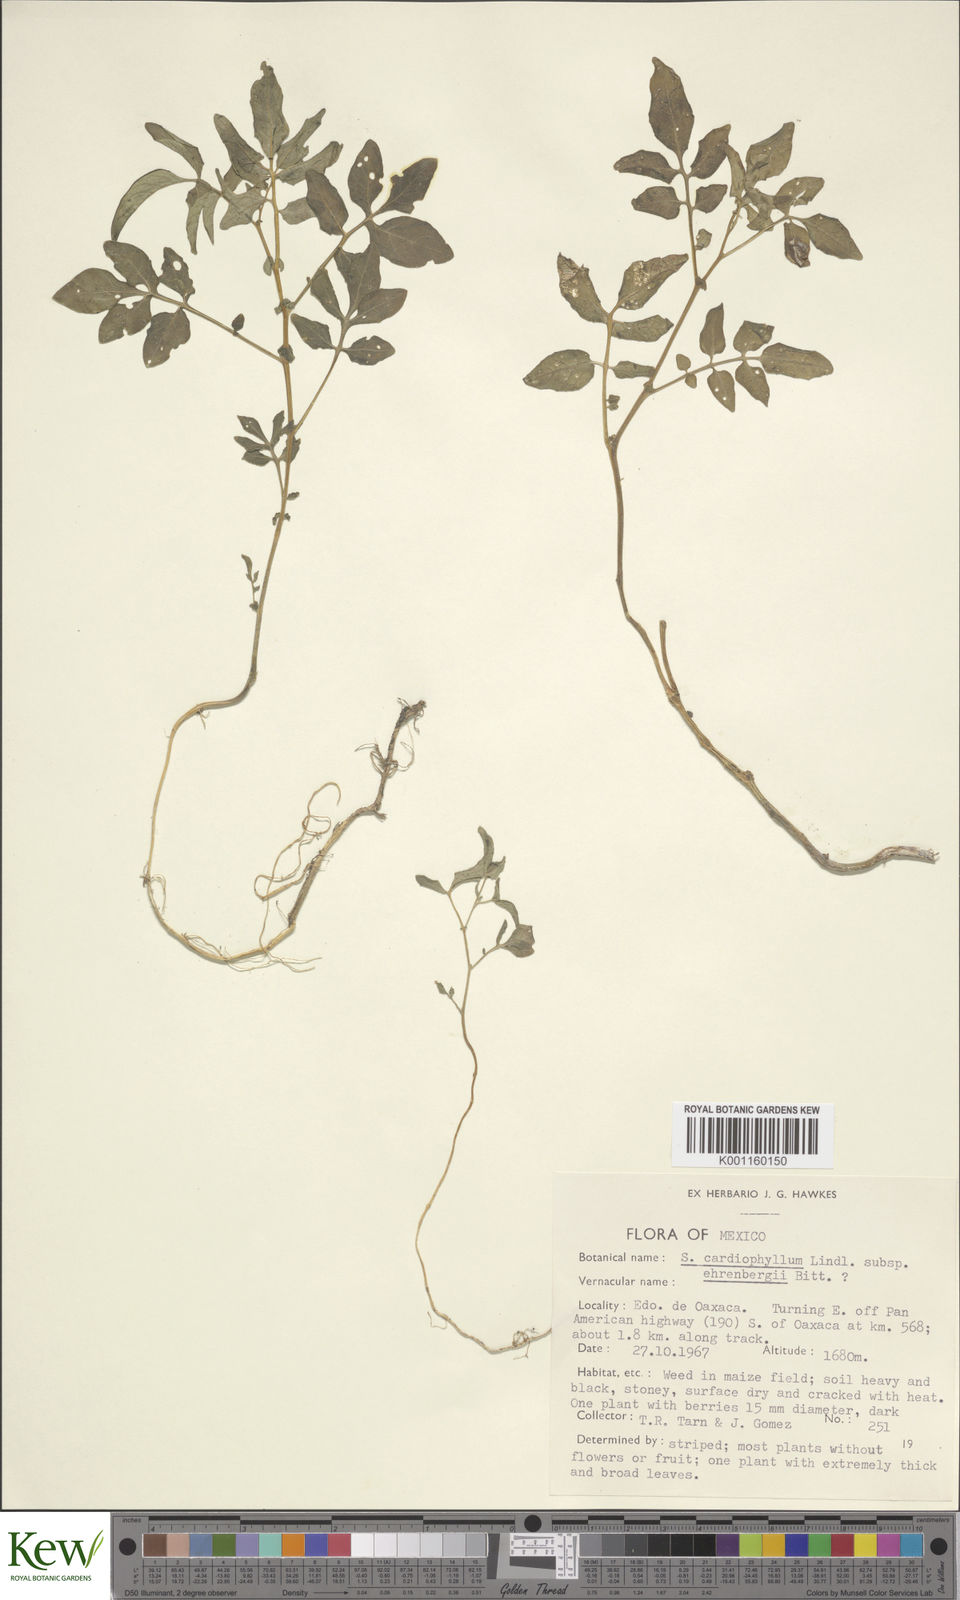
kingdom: Plantae
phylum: Tracheophyta
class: Magnoliopsida
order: Solanales
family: Solanaceae
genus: Solanum
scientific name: Solanum cardiophyllum
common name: Heartleaf horsenettle
